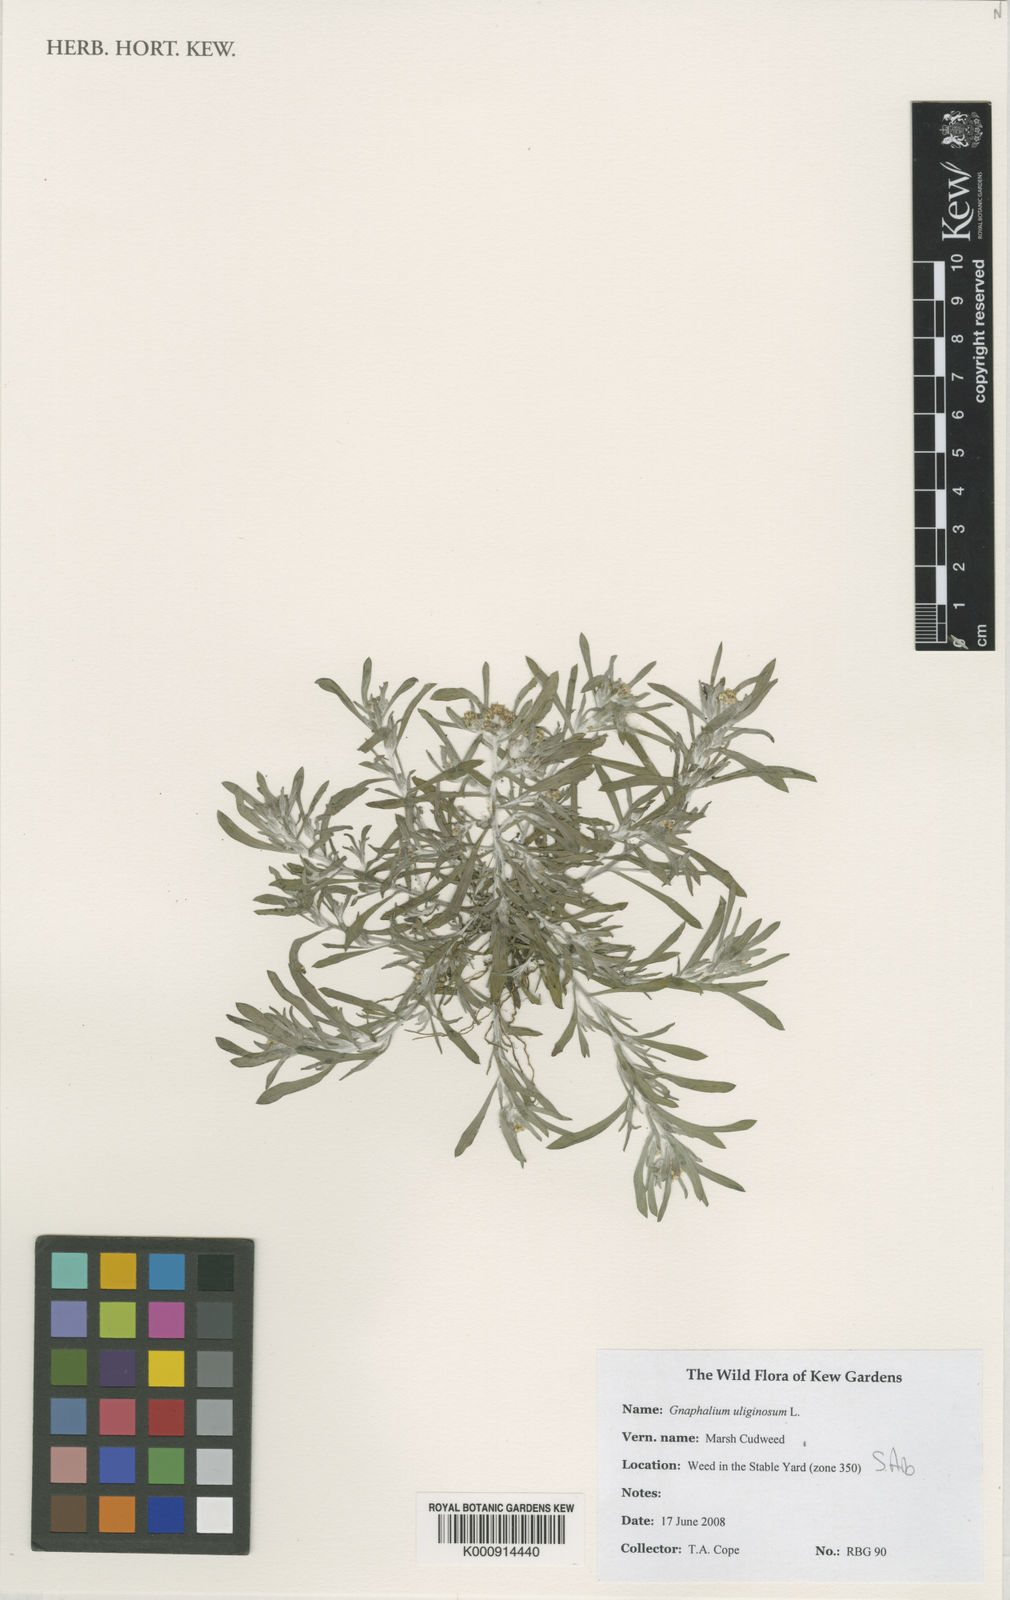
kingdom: Plantae
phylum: Tracheophyta
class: Magnoliopsida
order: Asterales
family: Asteraceae
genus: Gnaphalium
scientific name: Gnaphalium uliginosum
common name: Marsh cudweed
